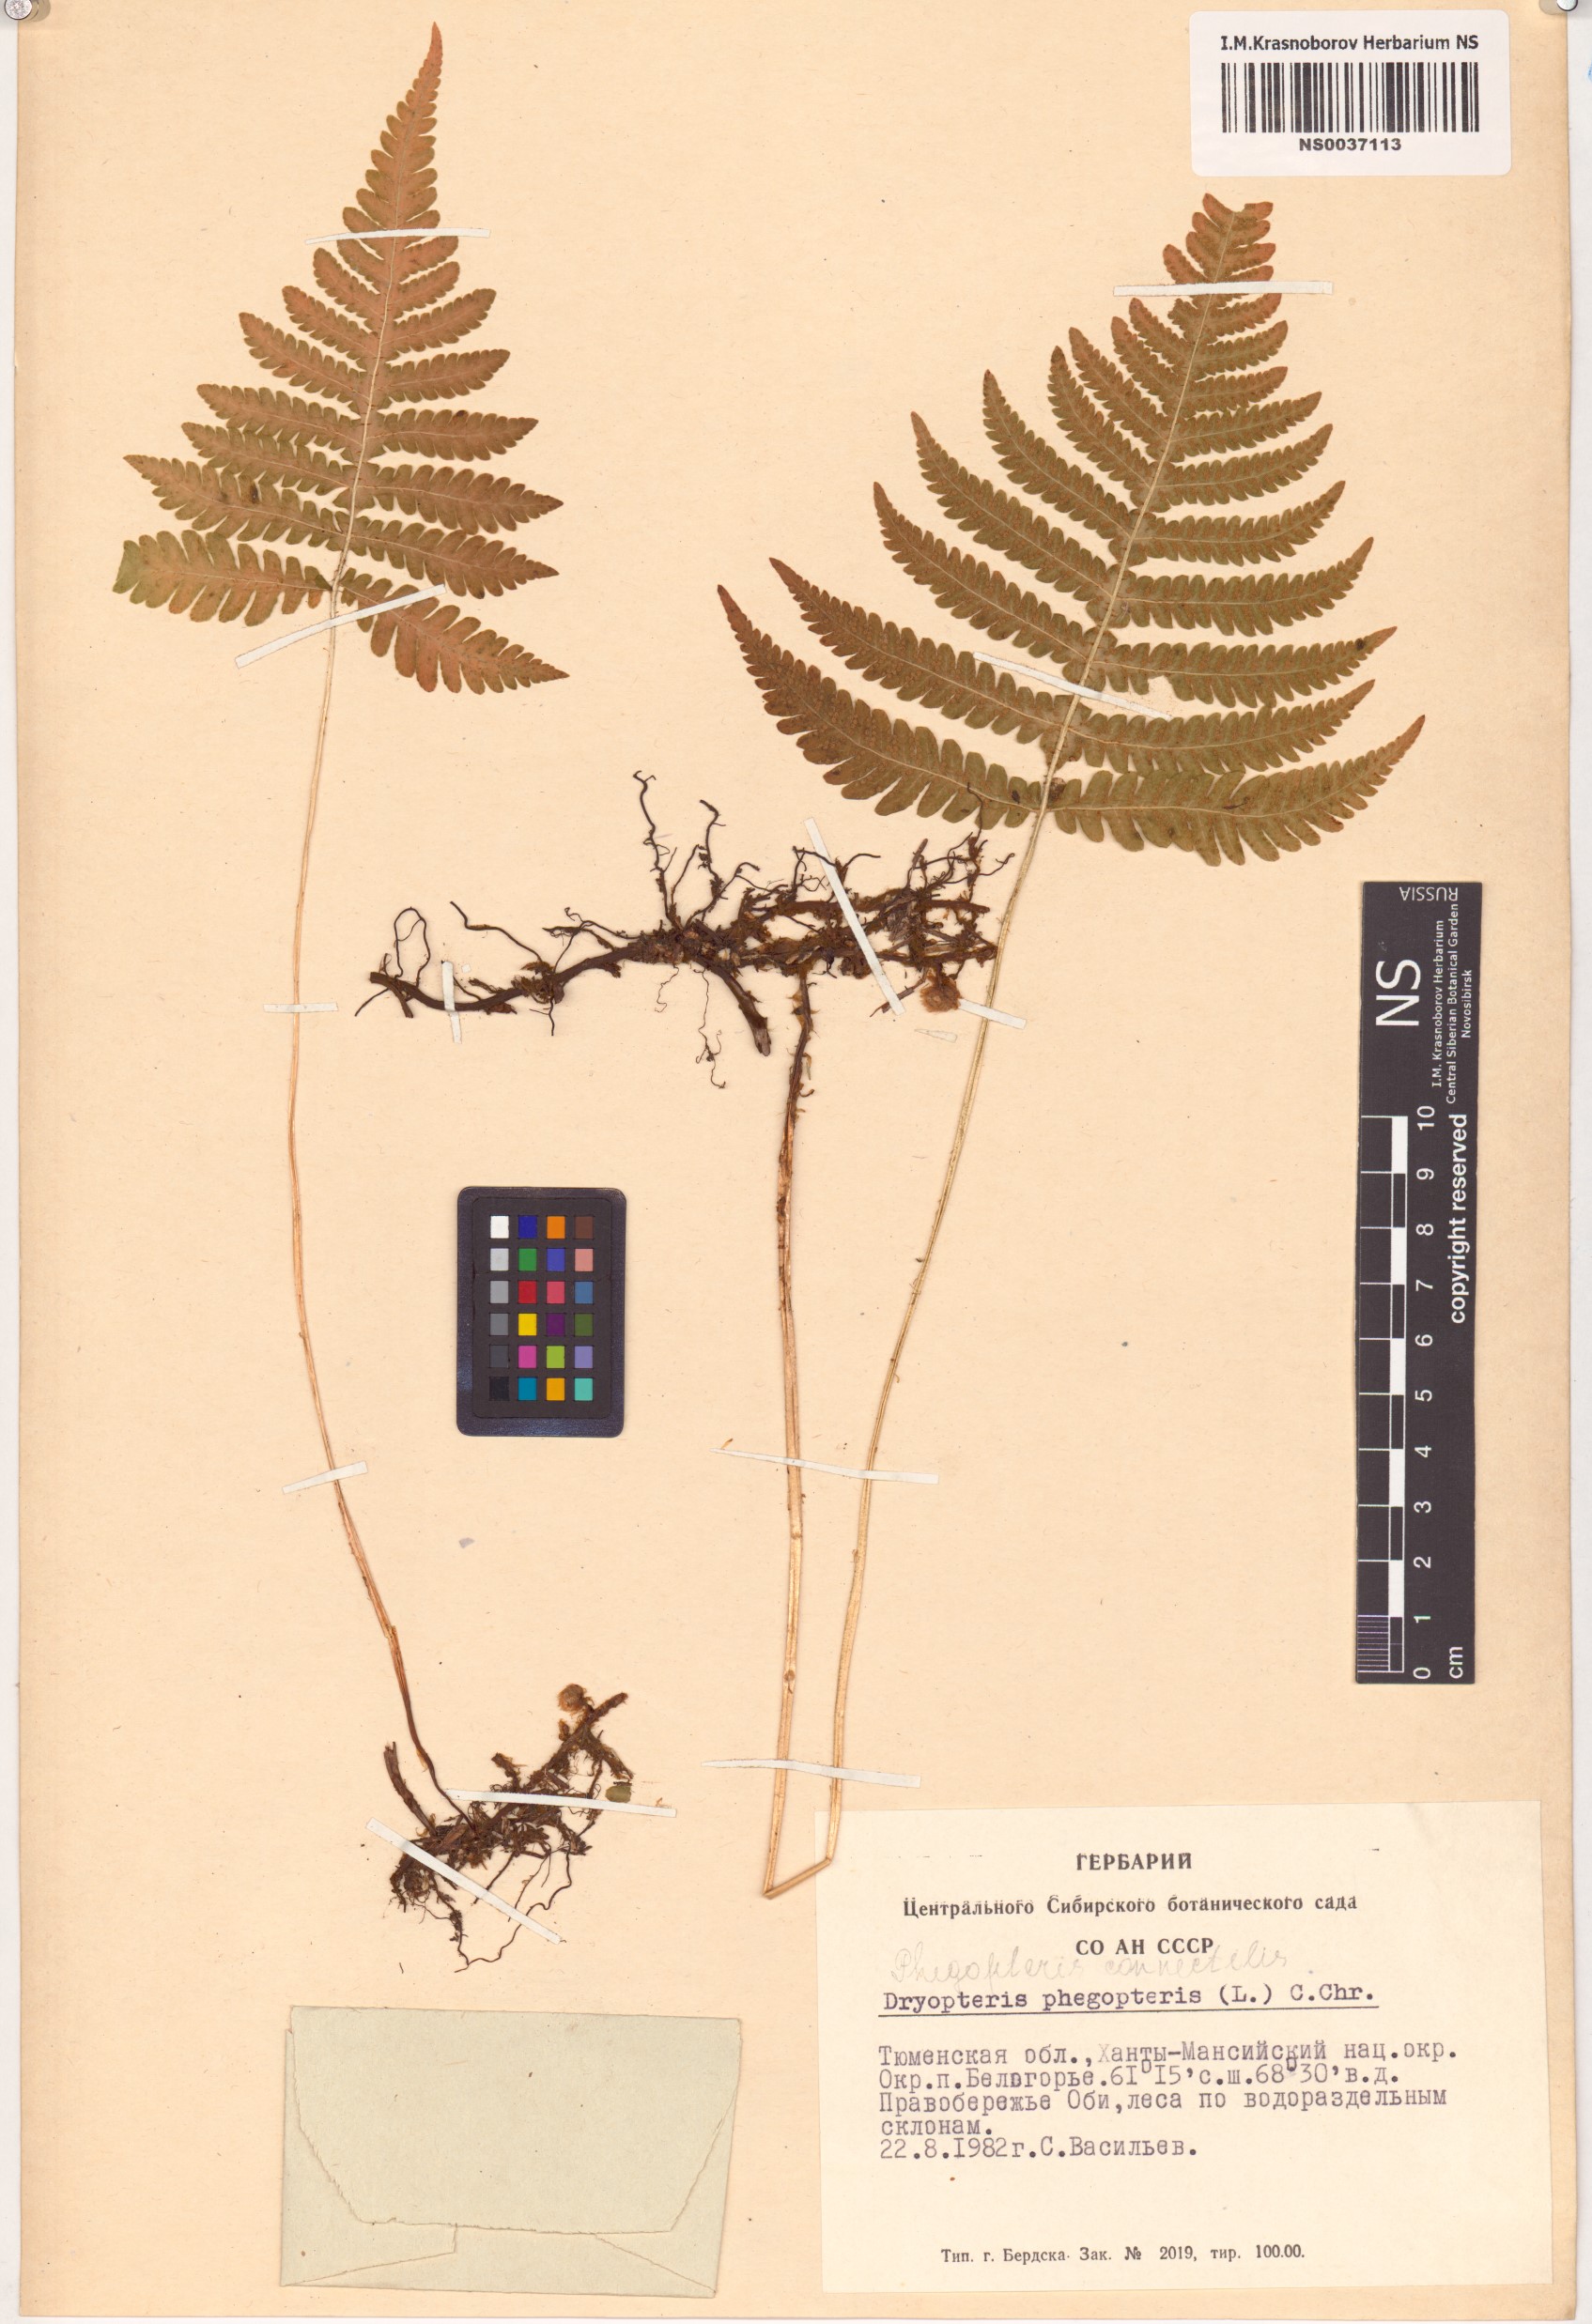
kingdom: Plantae
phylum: Tracheophyta
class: Polypodiopsida
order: Polypodiales
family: Thelypteridaceae
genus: Phegopteris
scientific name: Phegopteris connectilis
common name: Beech fern
